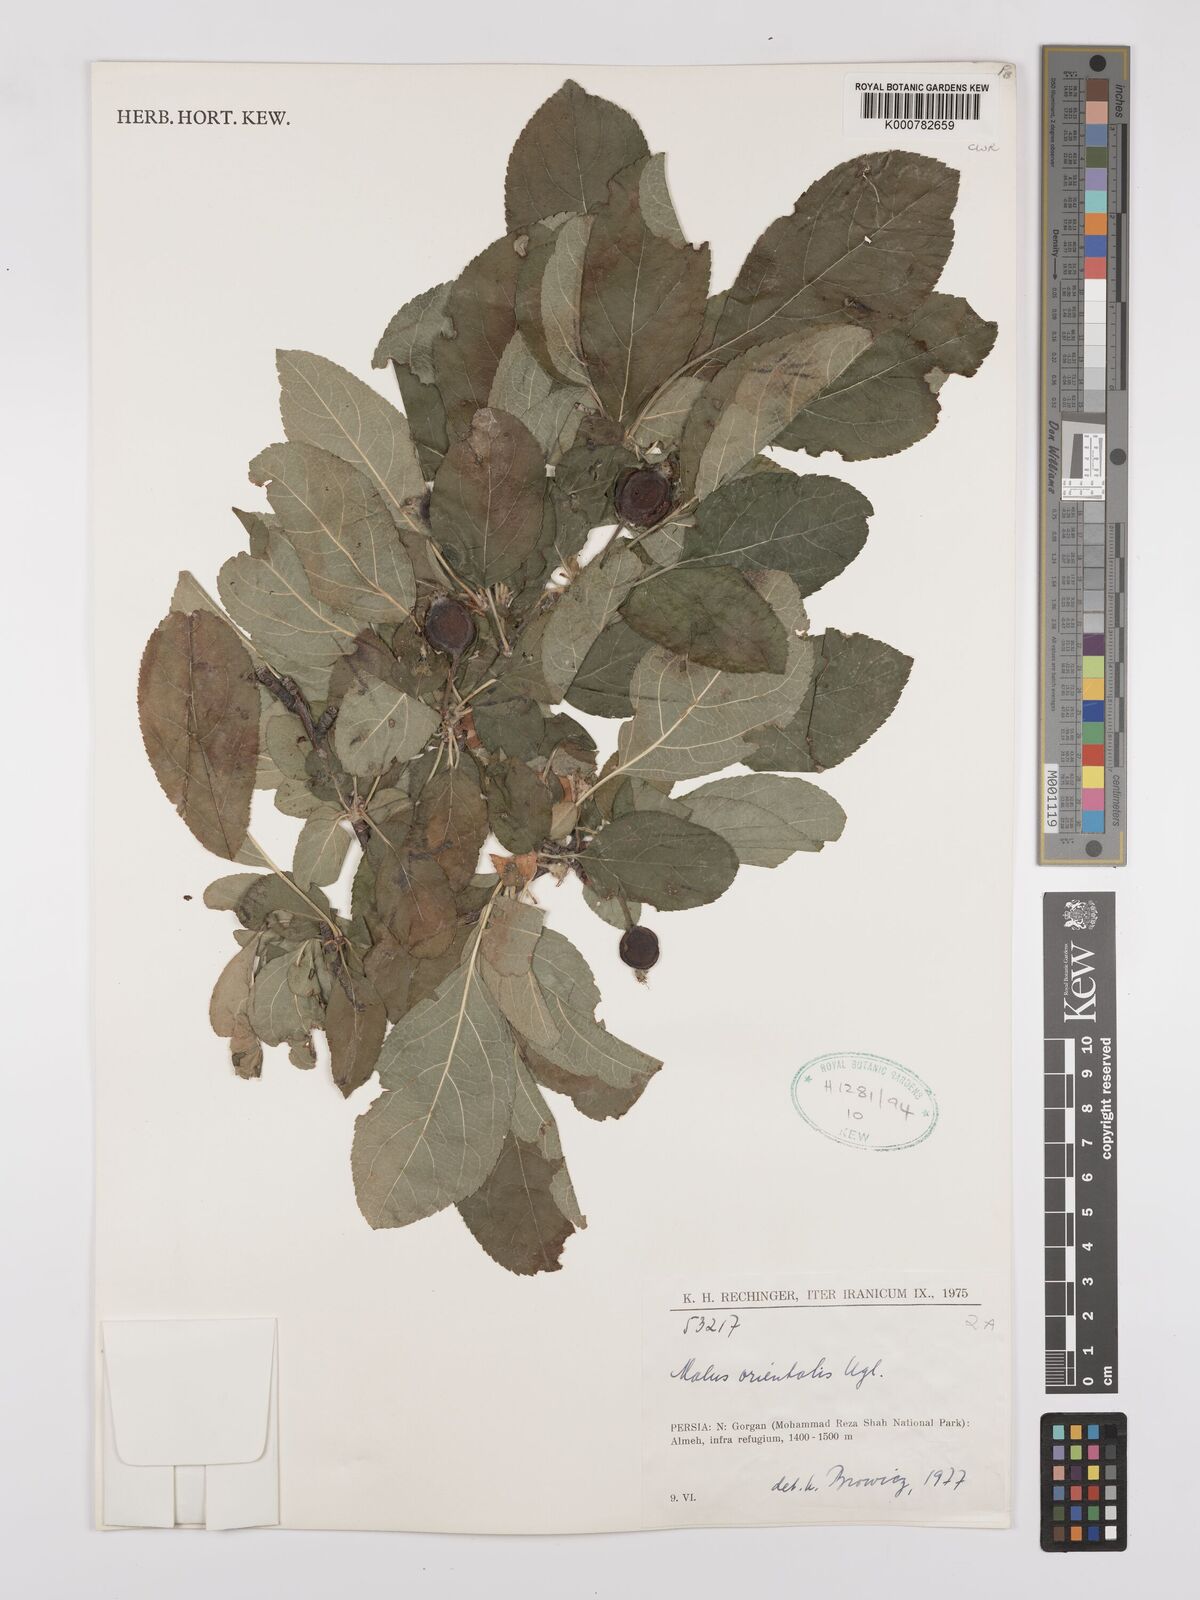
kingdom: Plantae
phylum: Tracheophyta
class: Magnoliopsida
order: Rosales
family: Rosaceae
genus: Malus
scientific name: Malus orientalis
